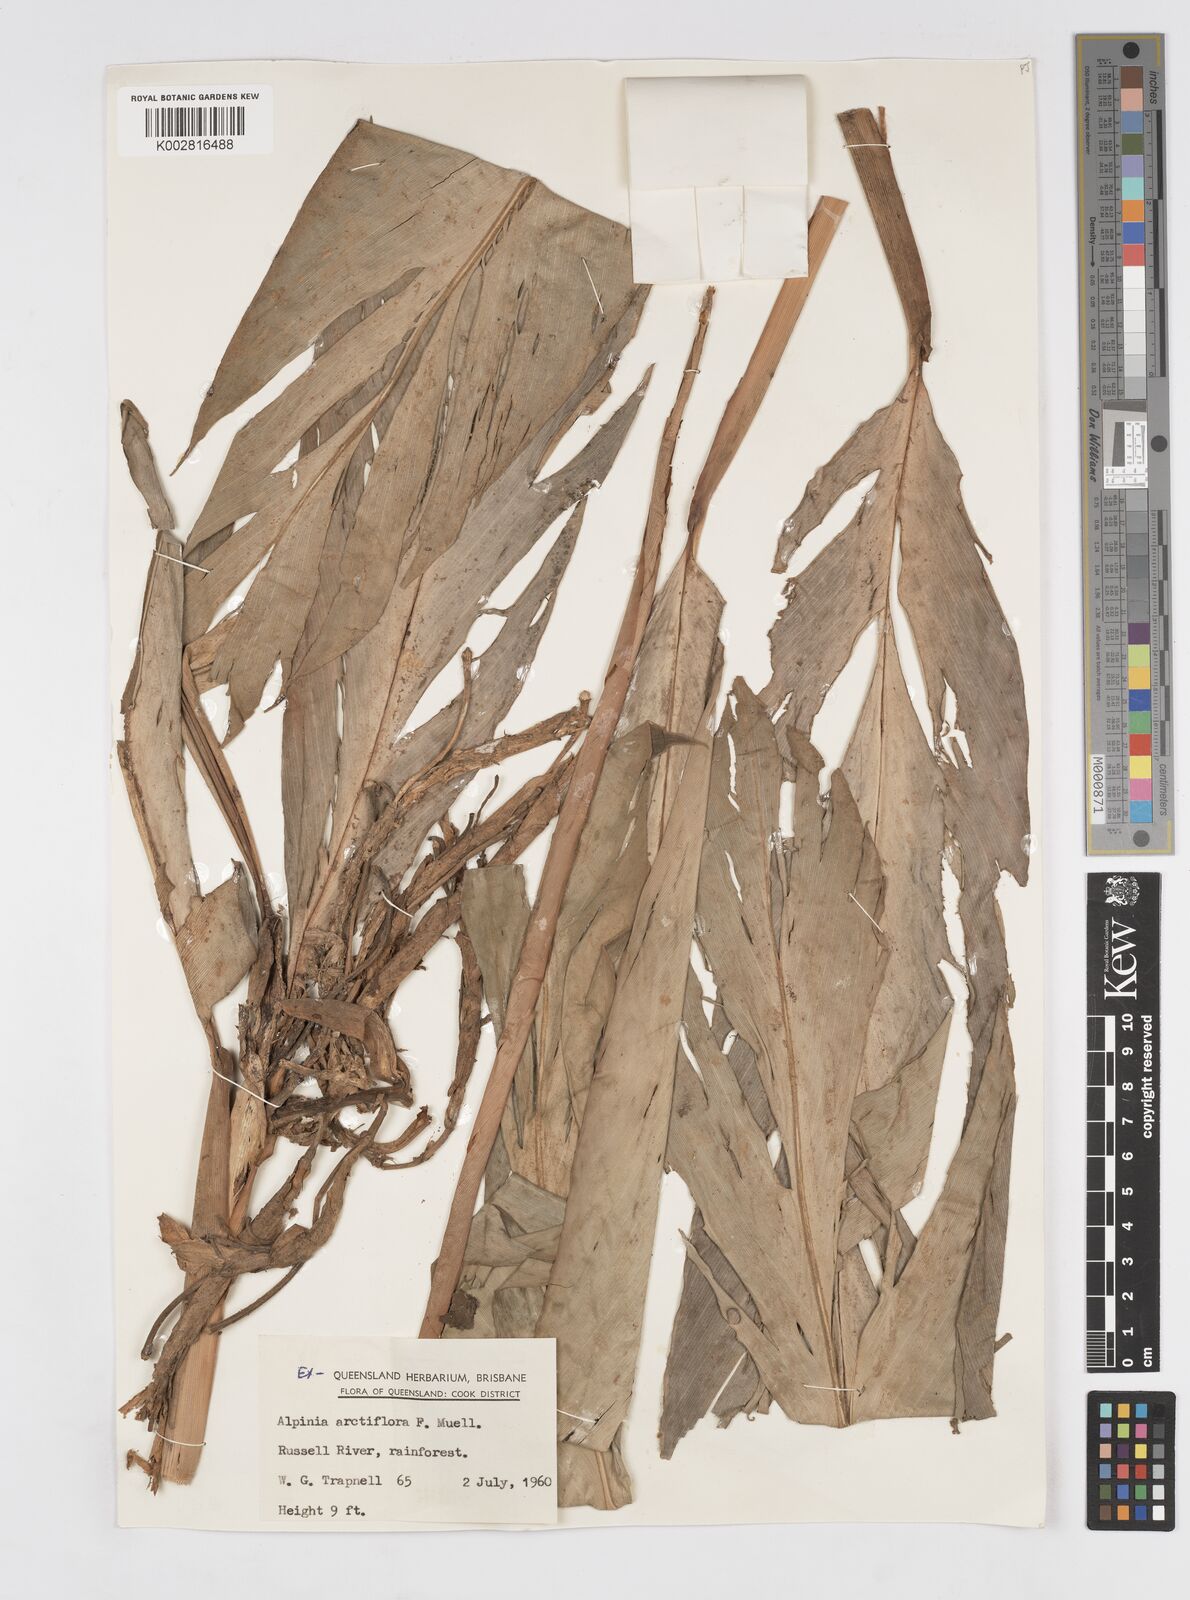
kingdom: Plantae
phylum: Tracheophyta
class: Liliopsida
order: Zingiberales
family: Zingiberaceae
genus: Alpinia
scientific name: Alpinia arctiflora
